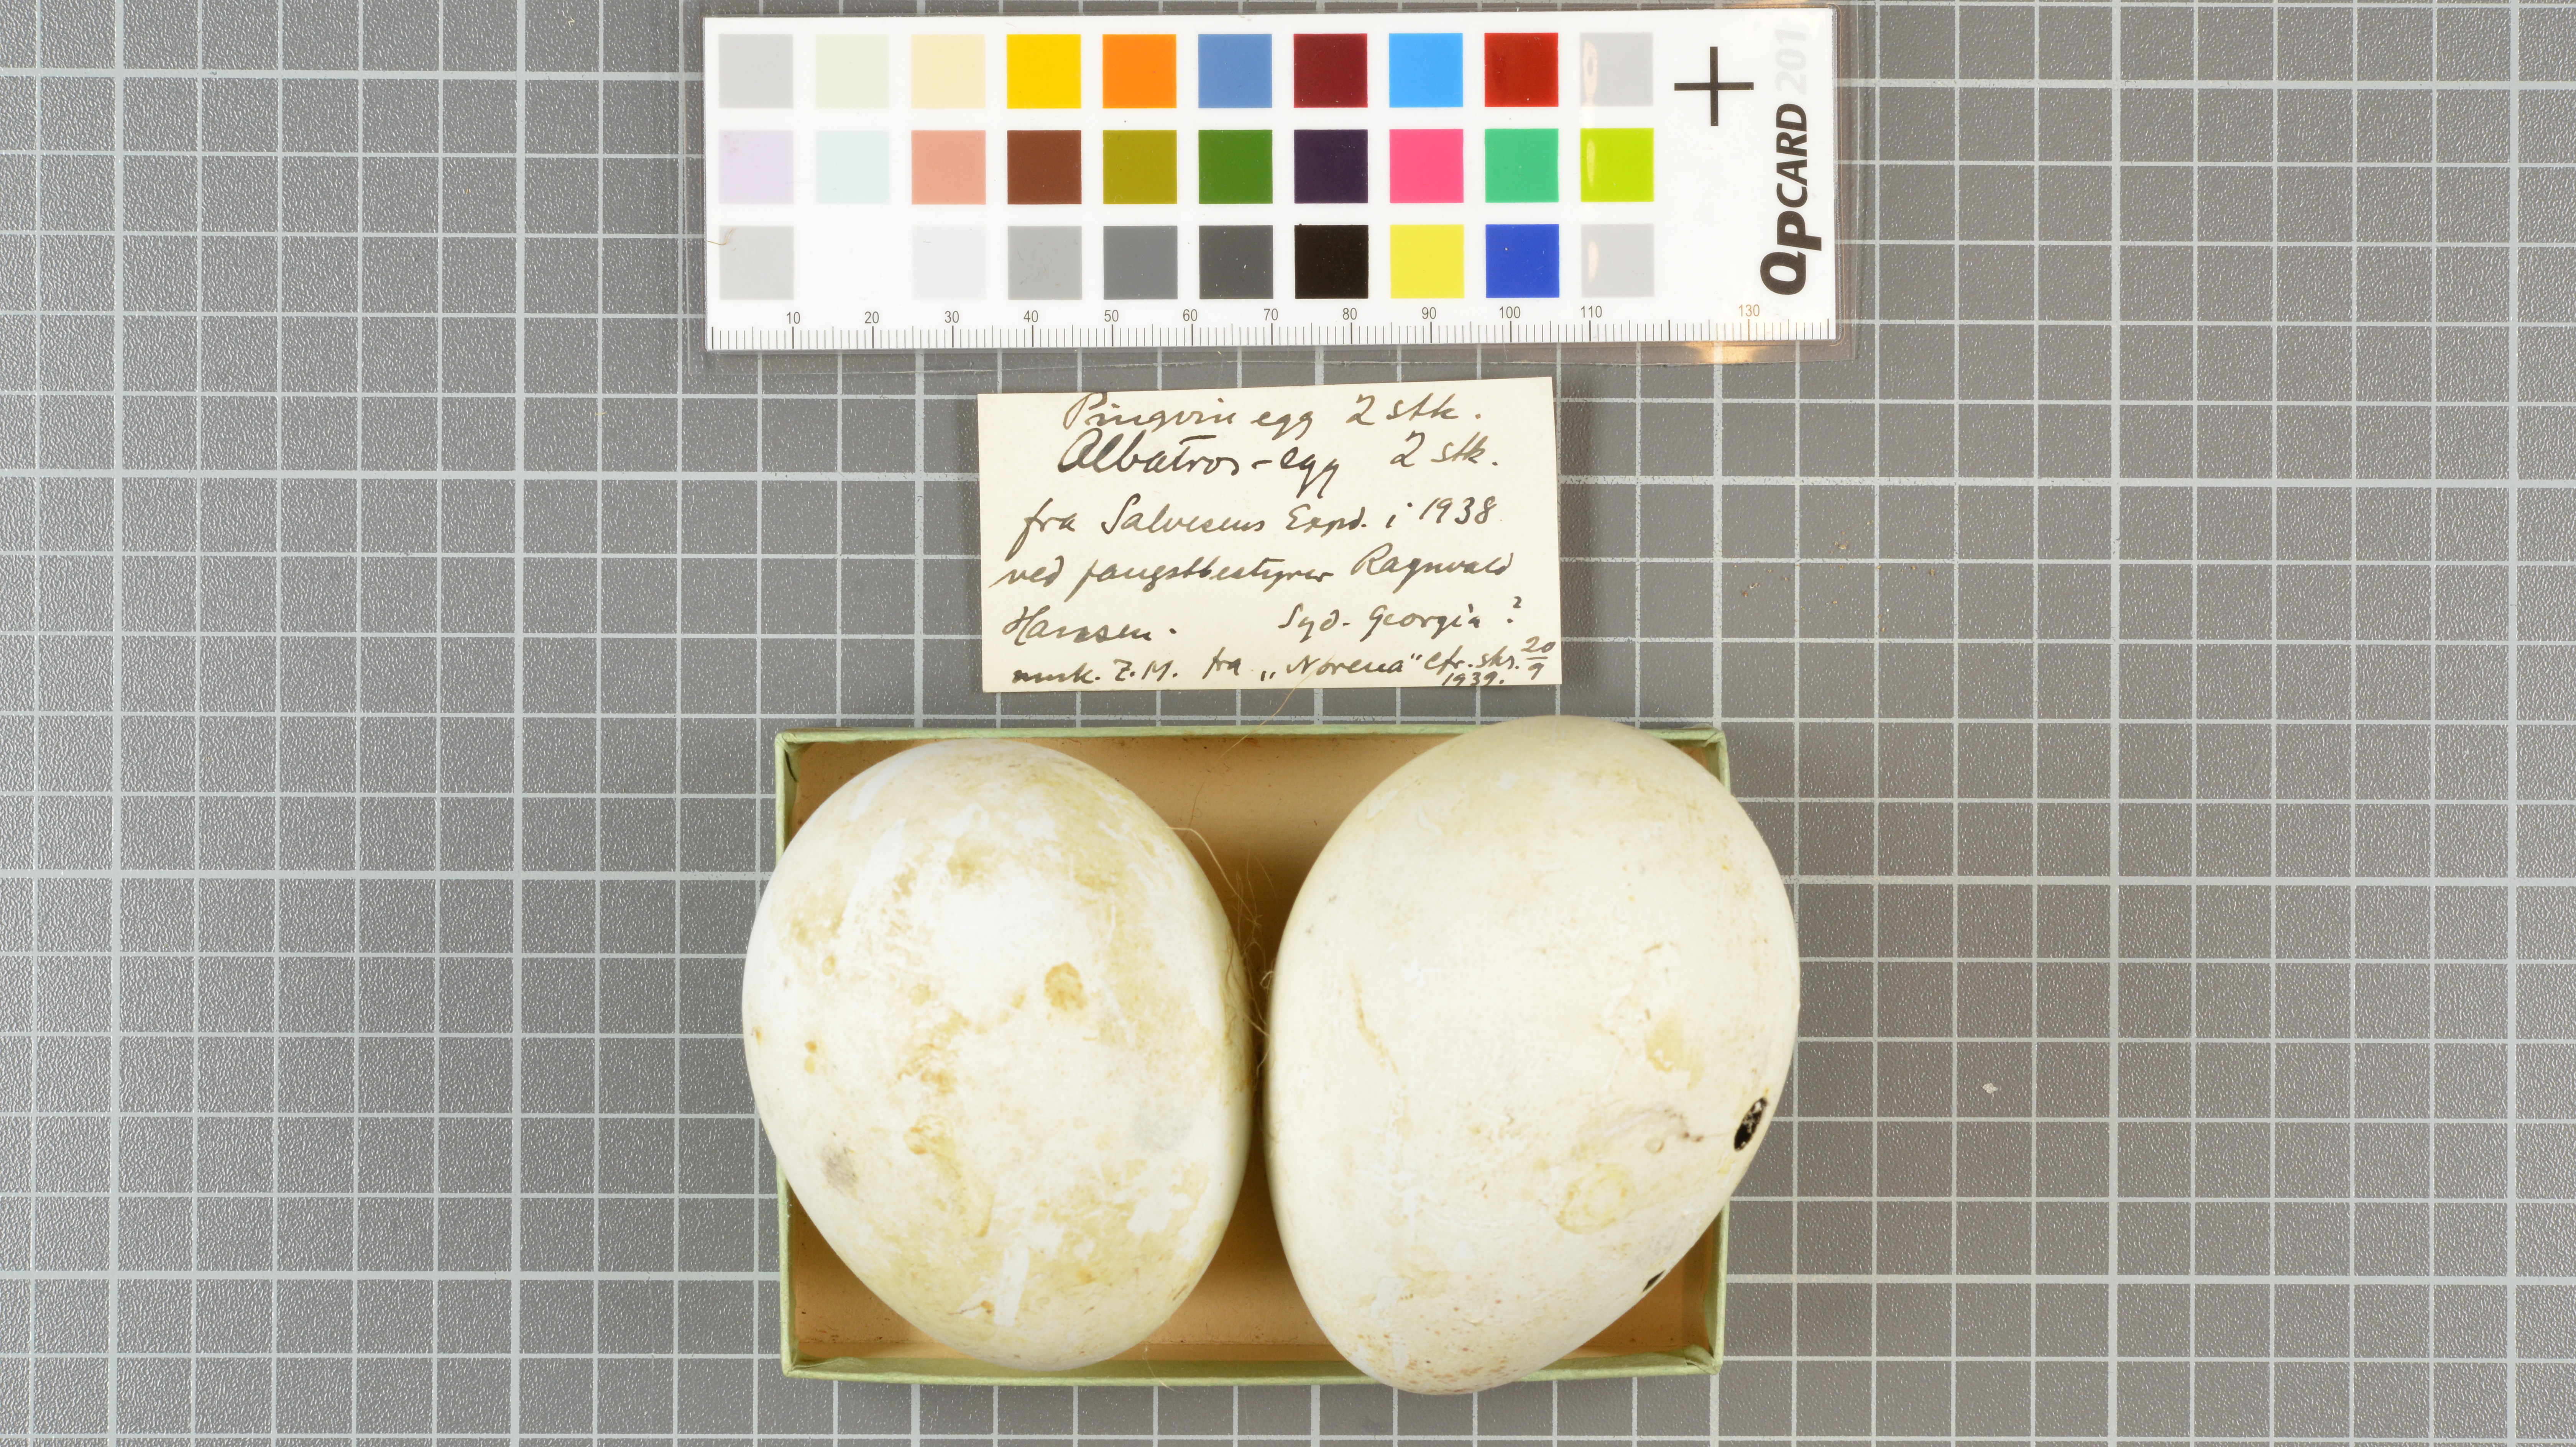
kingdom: Animalia
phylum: Chordata
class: Aves
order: Sphenisciformes
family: Spheniscidae
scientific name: Spheniscidae
